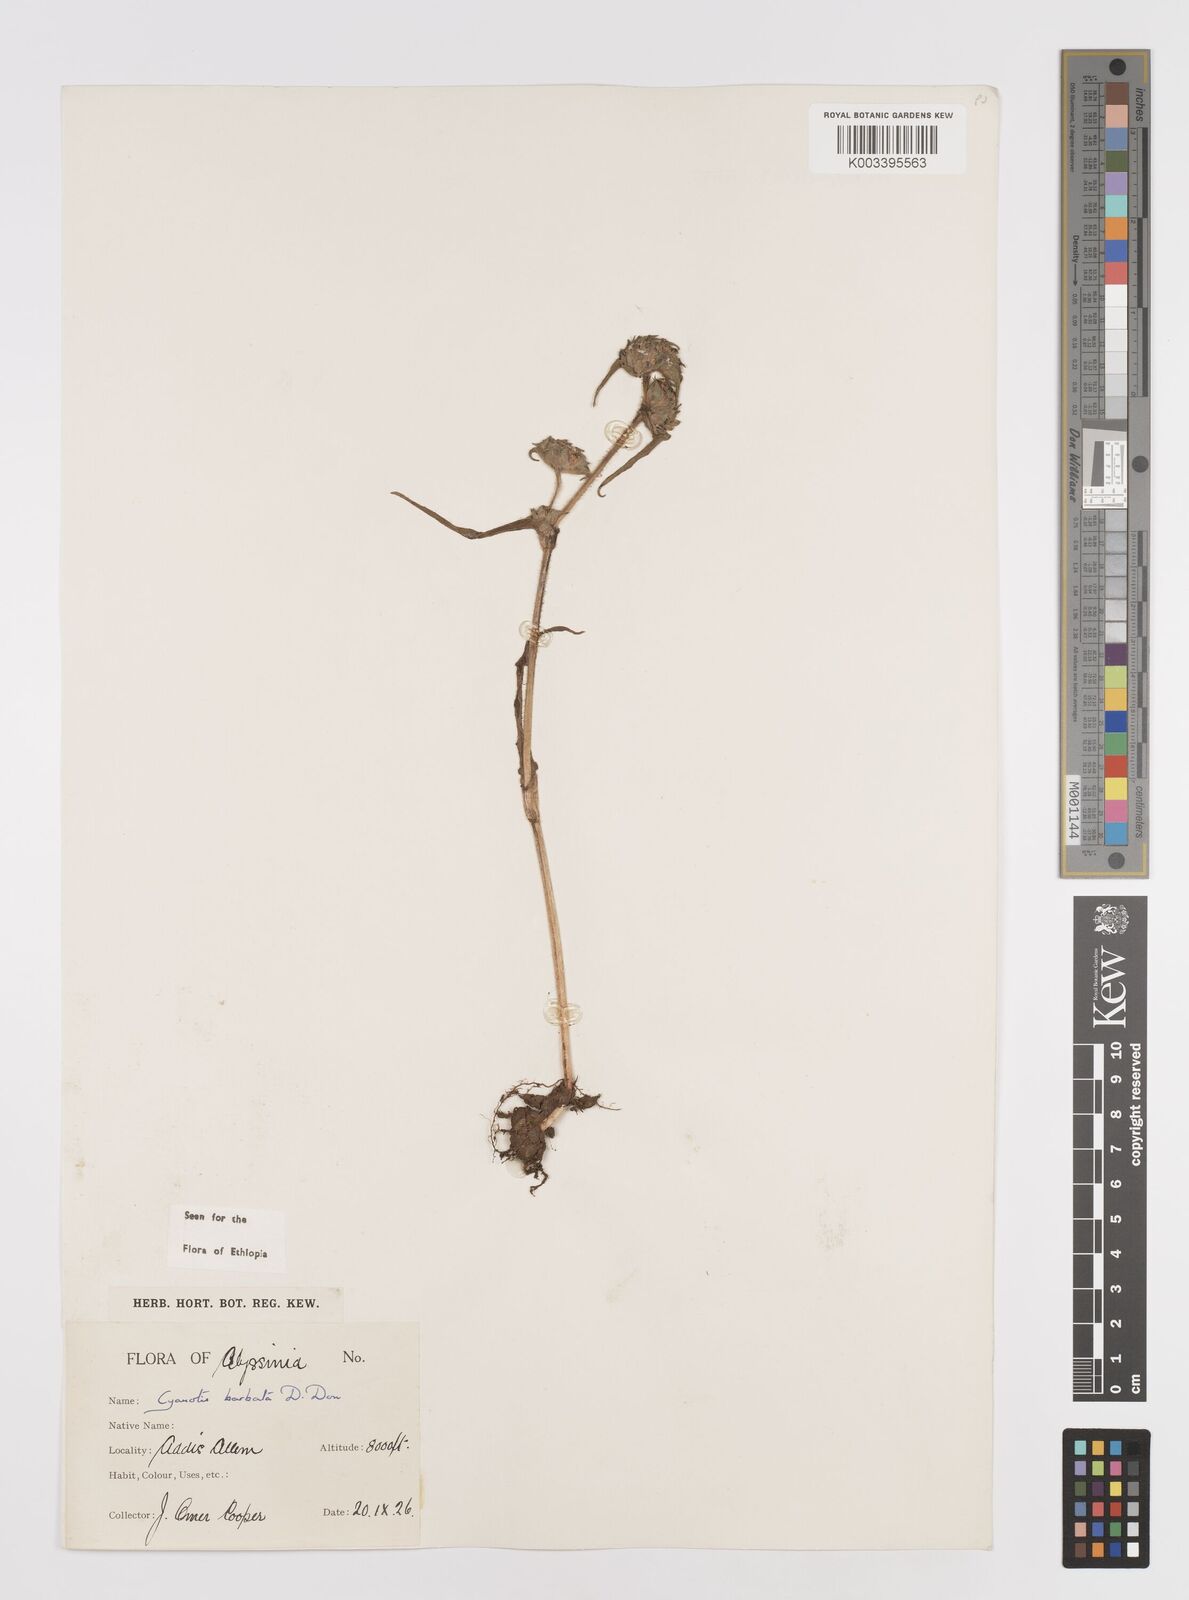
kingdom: Plantae
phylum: Tracheophyta
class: Liliopsida
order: Commelinales
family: Commelinaceae
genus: Cyanotis
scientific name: Cyanotis vaga
